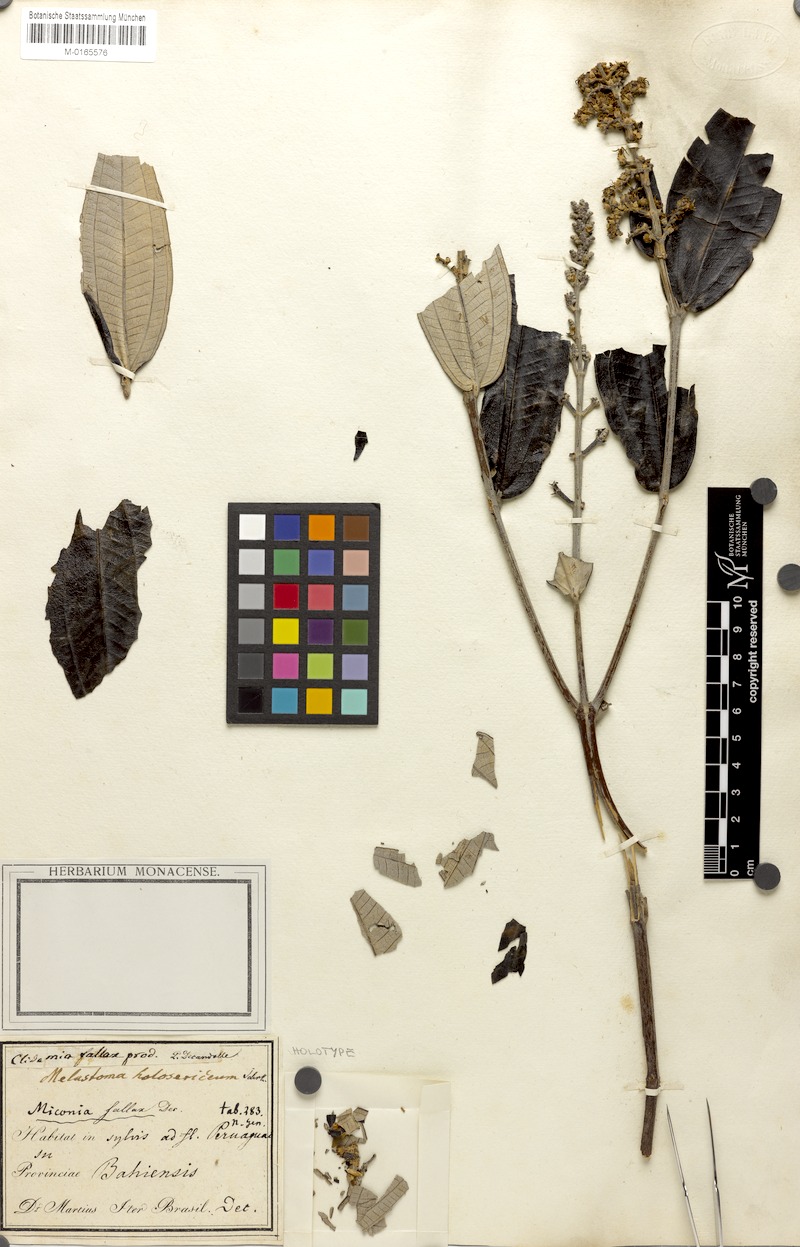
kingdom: Plantae
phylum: Tracheophyta
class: Magnoliopsida
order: Myrtales
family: Melastomataceae
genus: Miconia
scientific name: Miconia fallax
